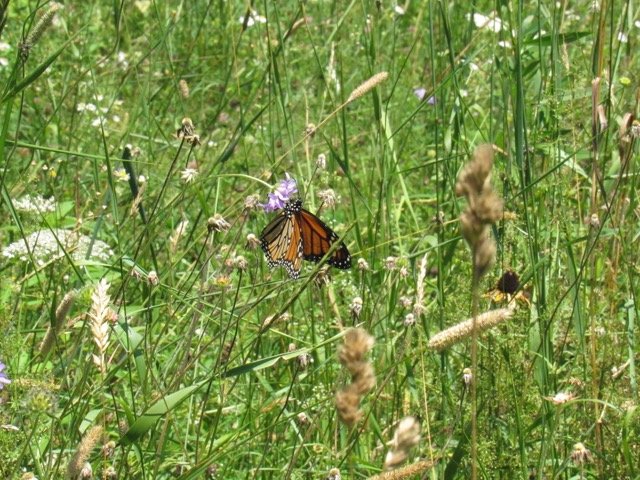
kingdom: Animalia
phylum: Arthropoda
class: Insecta
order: Lepidoptera
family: Nymphalidae
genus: Danaus
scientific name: Danaus plexippus
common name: Monarch
